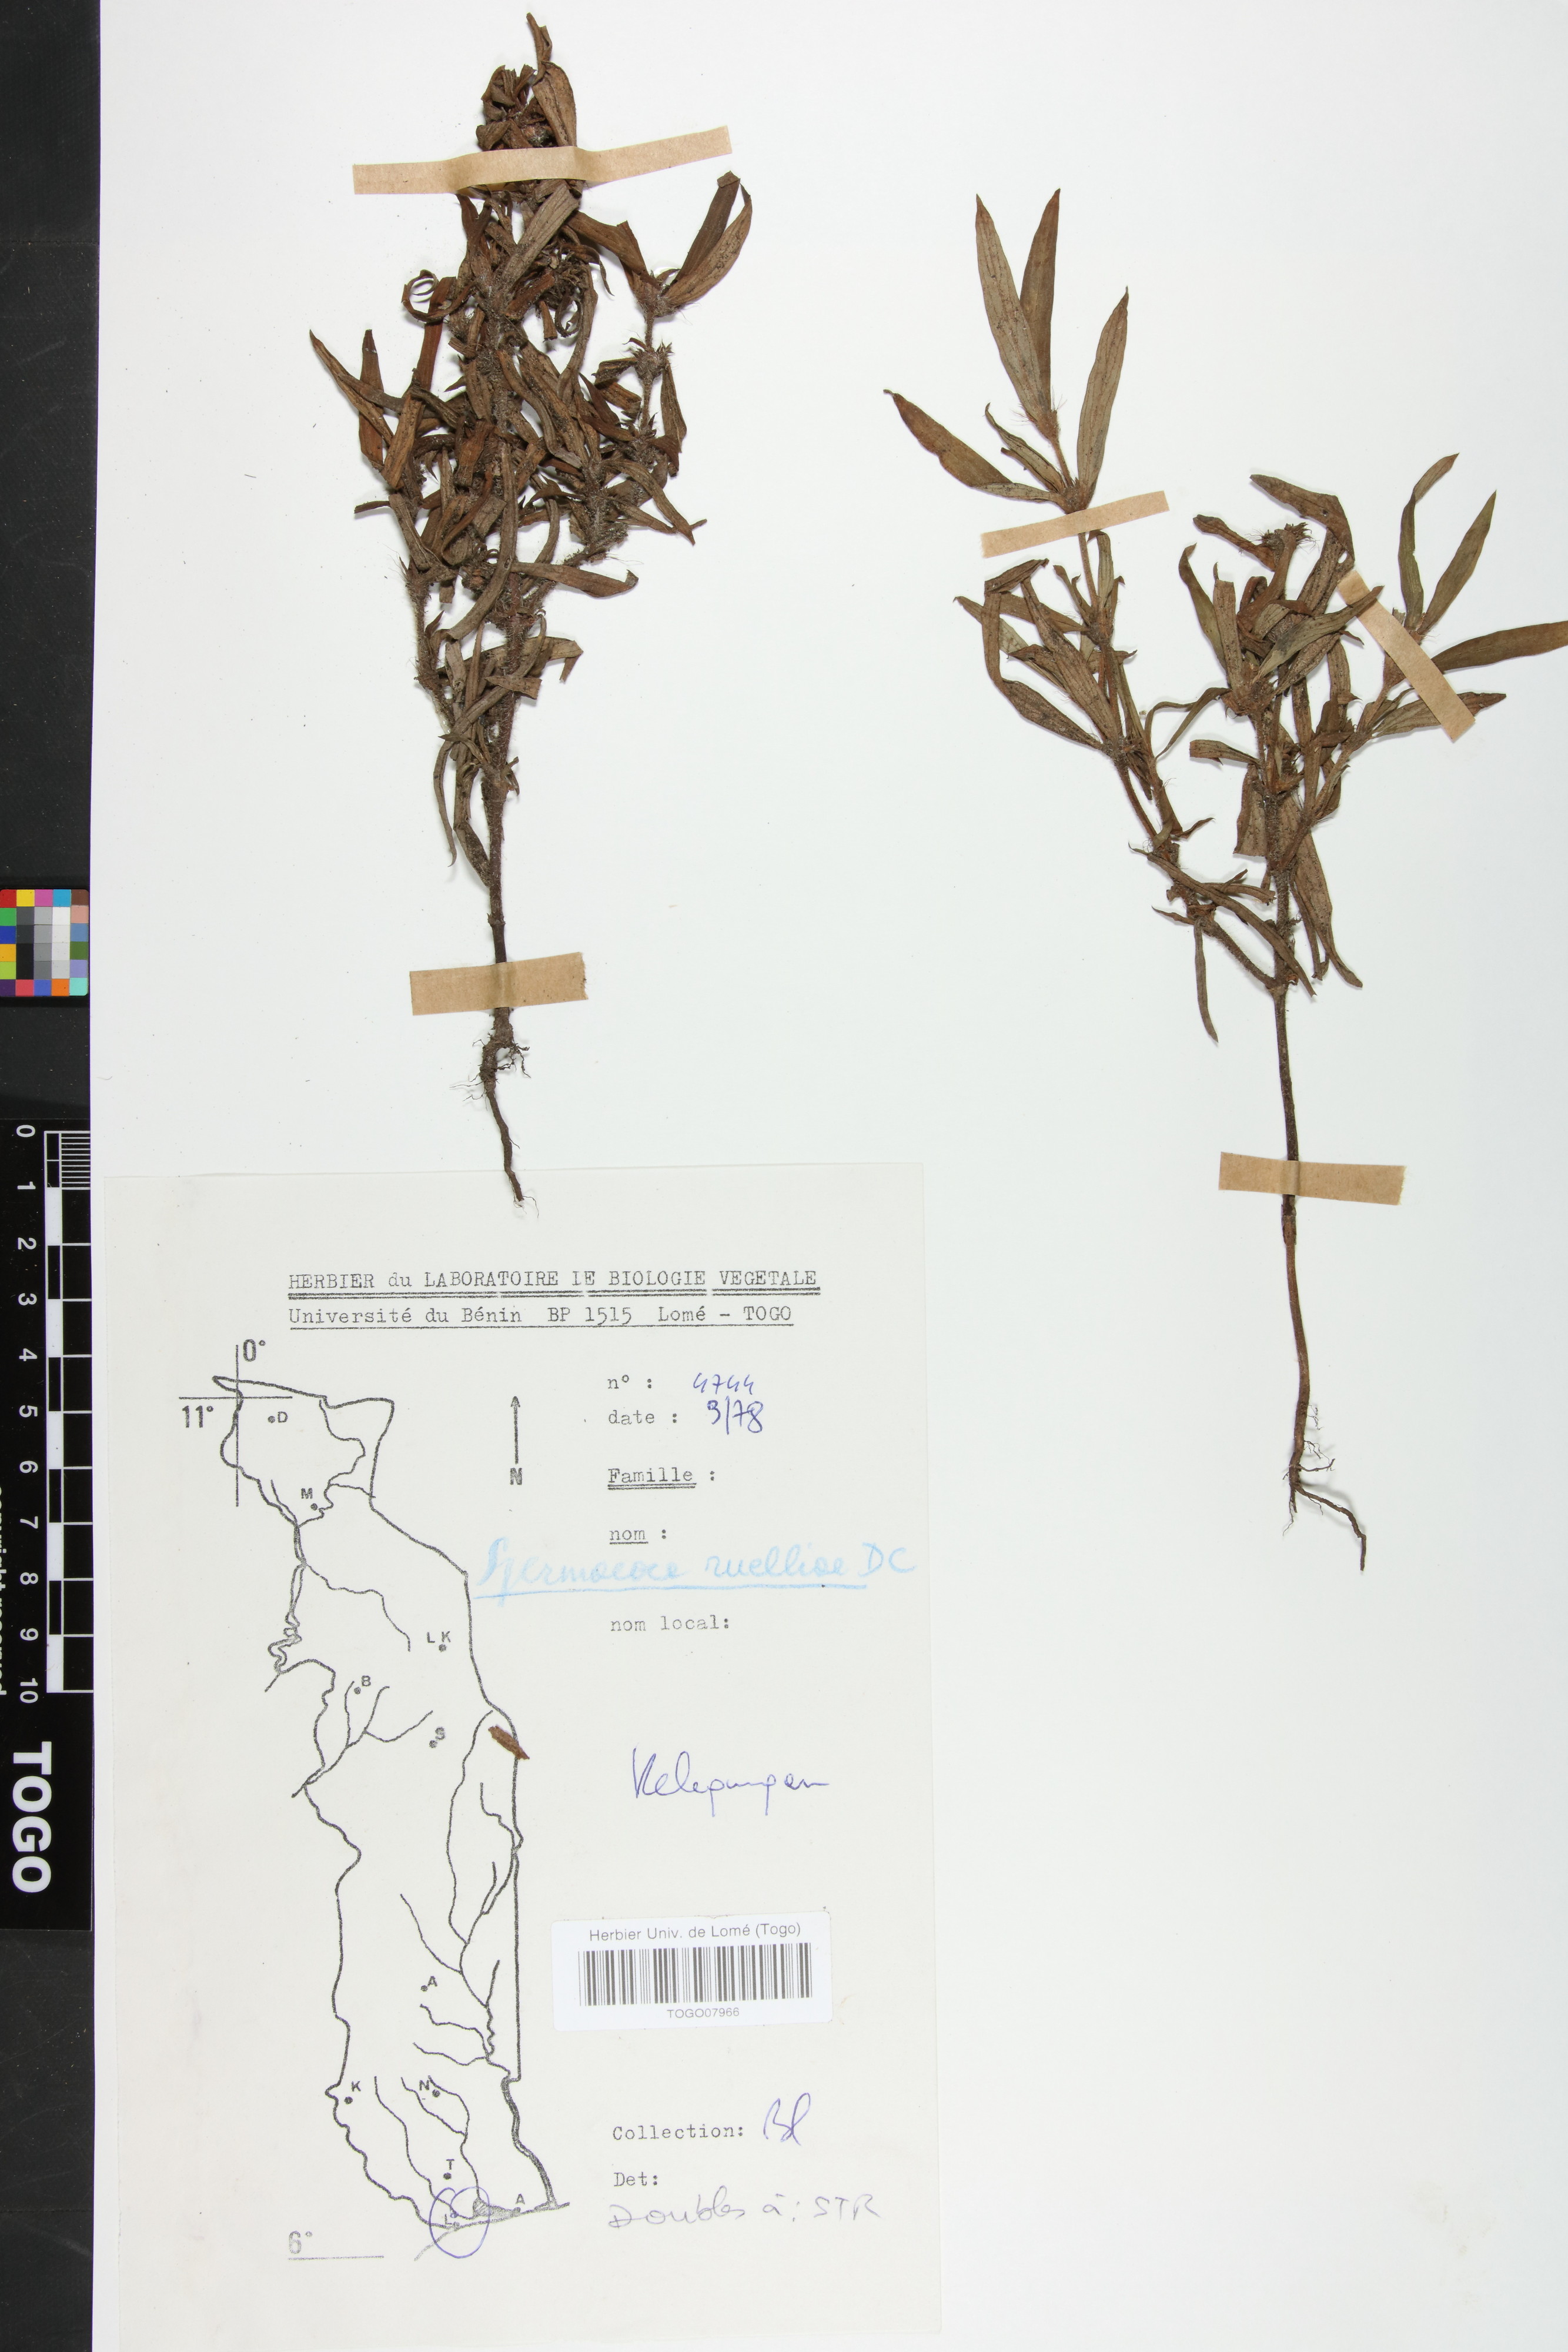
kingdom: Plantae
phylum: Tracheophyta
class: Magnoliopsida
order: Gentianales
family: Rubiaceae
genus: Spermacoce
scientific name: Spermacoce ruelliae
